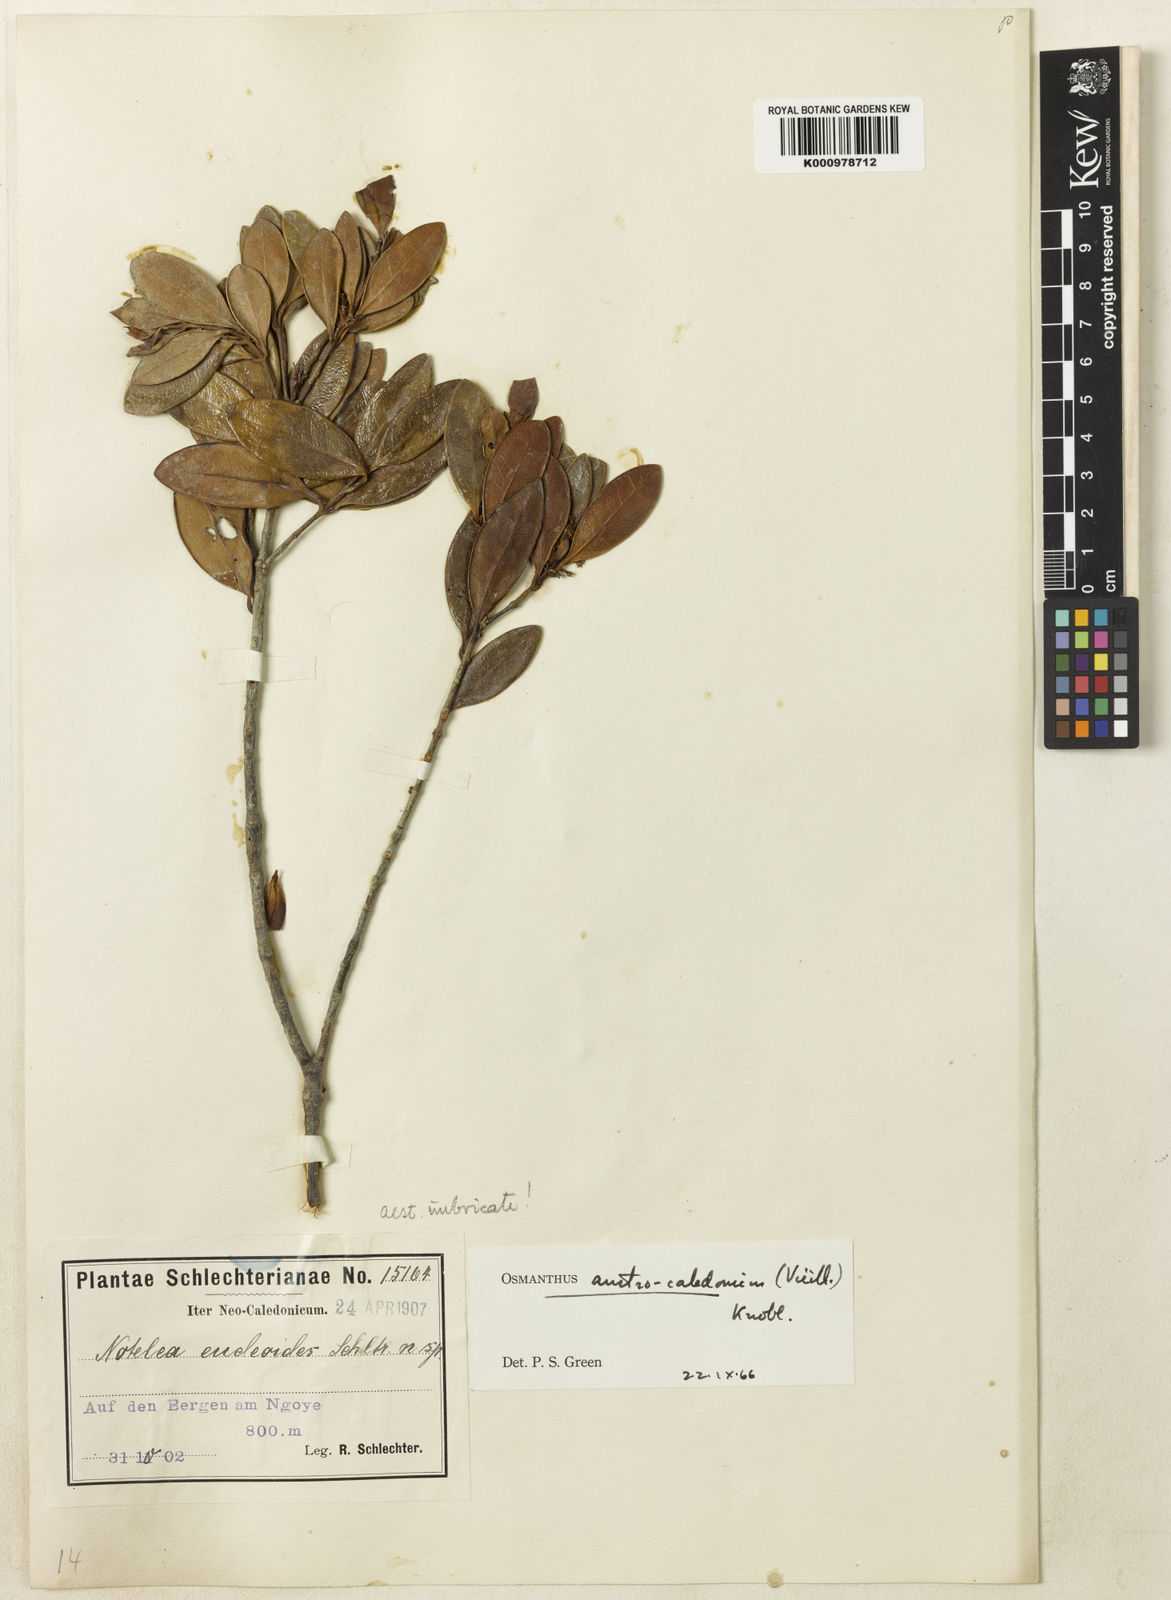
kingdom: Plantae
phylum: Tracheophyta
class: Magnoliopsida
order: Lamiales
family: Oleaceae
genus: Osmanthus
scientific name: Osmanthus austrocaledonicus
